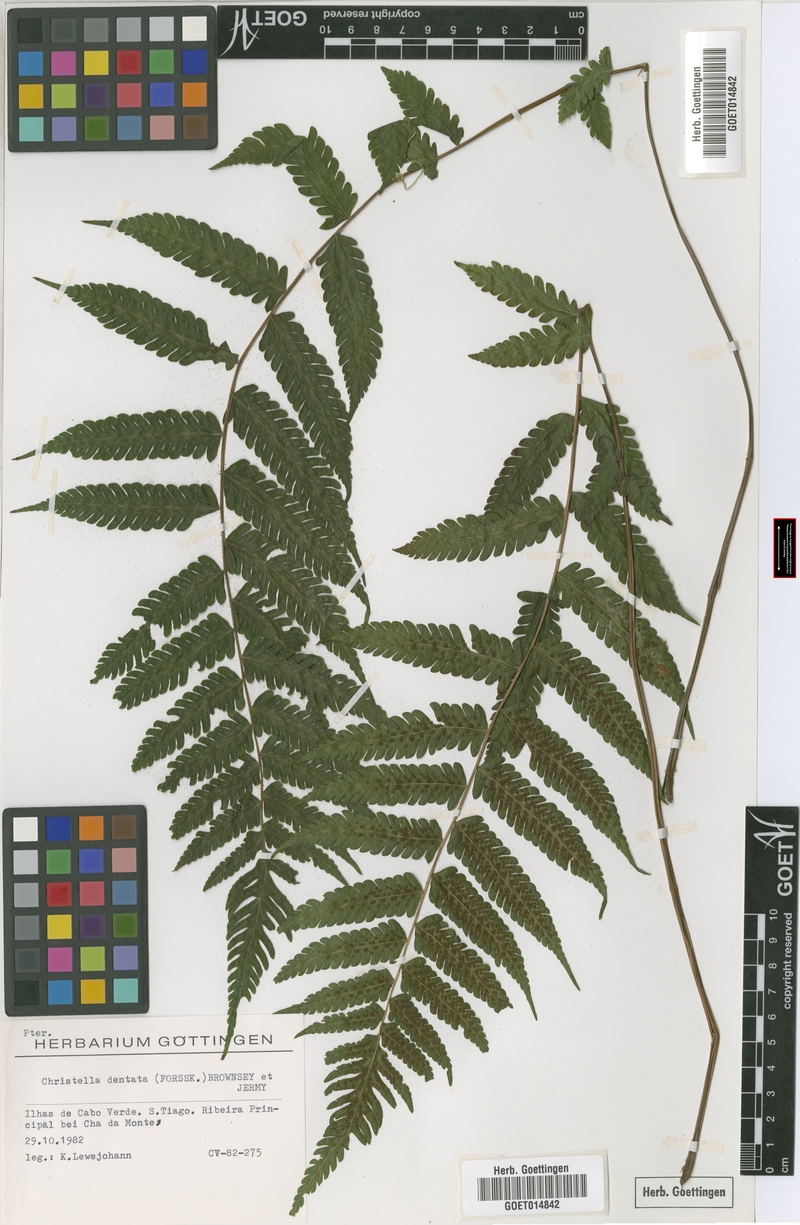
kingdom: Plantae
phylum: Tracheophyta
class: Polypodiopsida
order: Polypodiales
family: Thelypteridaceae
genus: Christella
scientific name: Christella dentata
